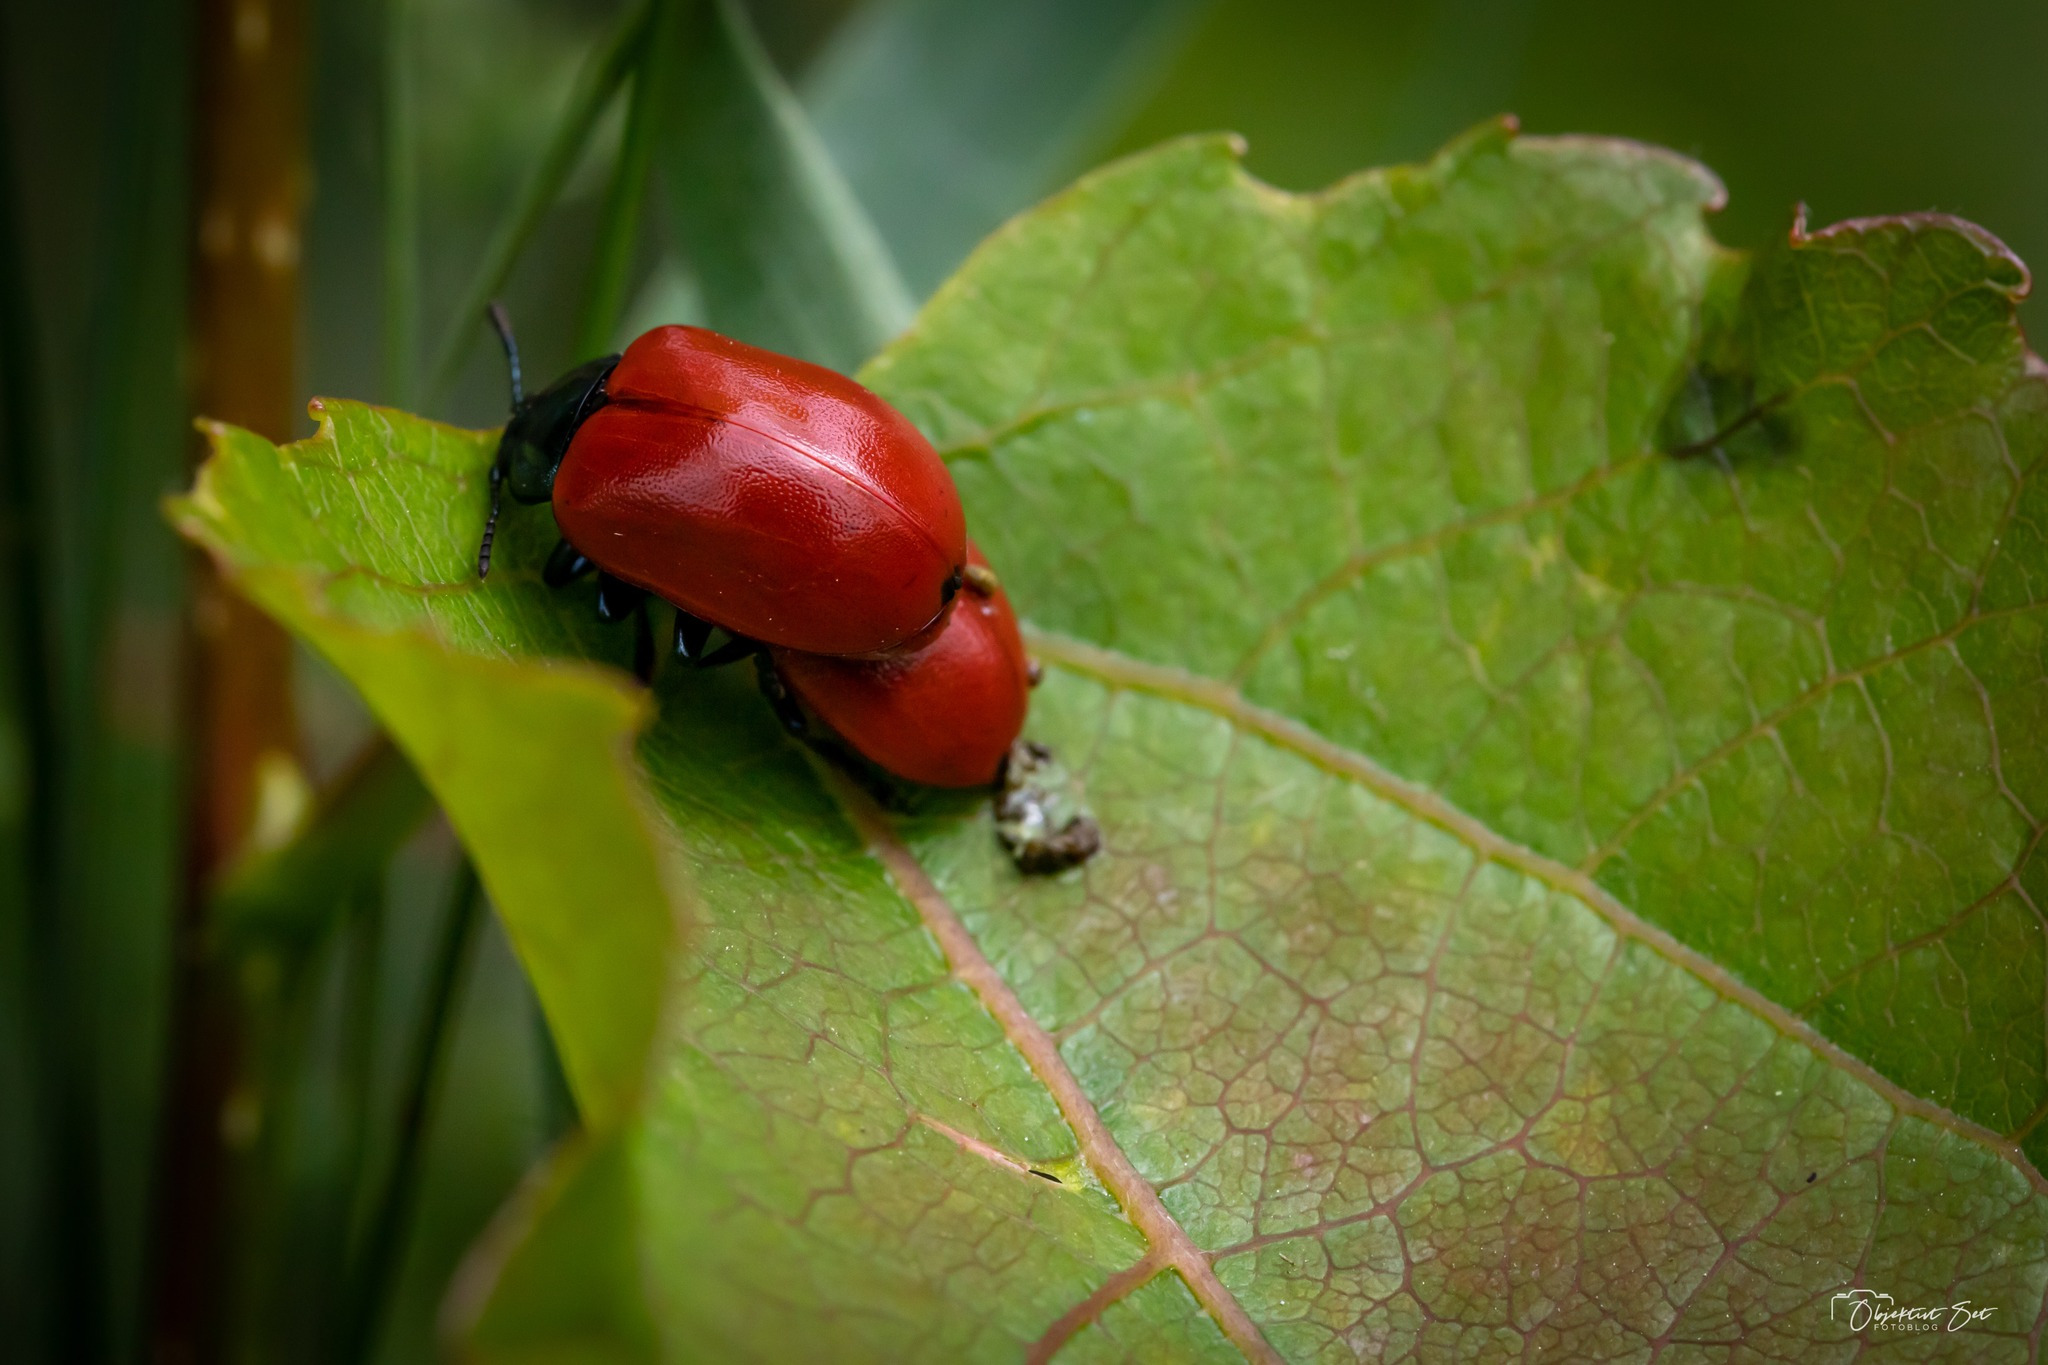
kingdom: Animalia
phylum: Arthropoda
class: Insecta
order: Coleoptera
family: Chrysomelidae
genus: Chrysomela
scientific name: Chrysomela populi
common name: Poppelbladbille
